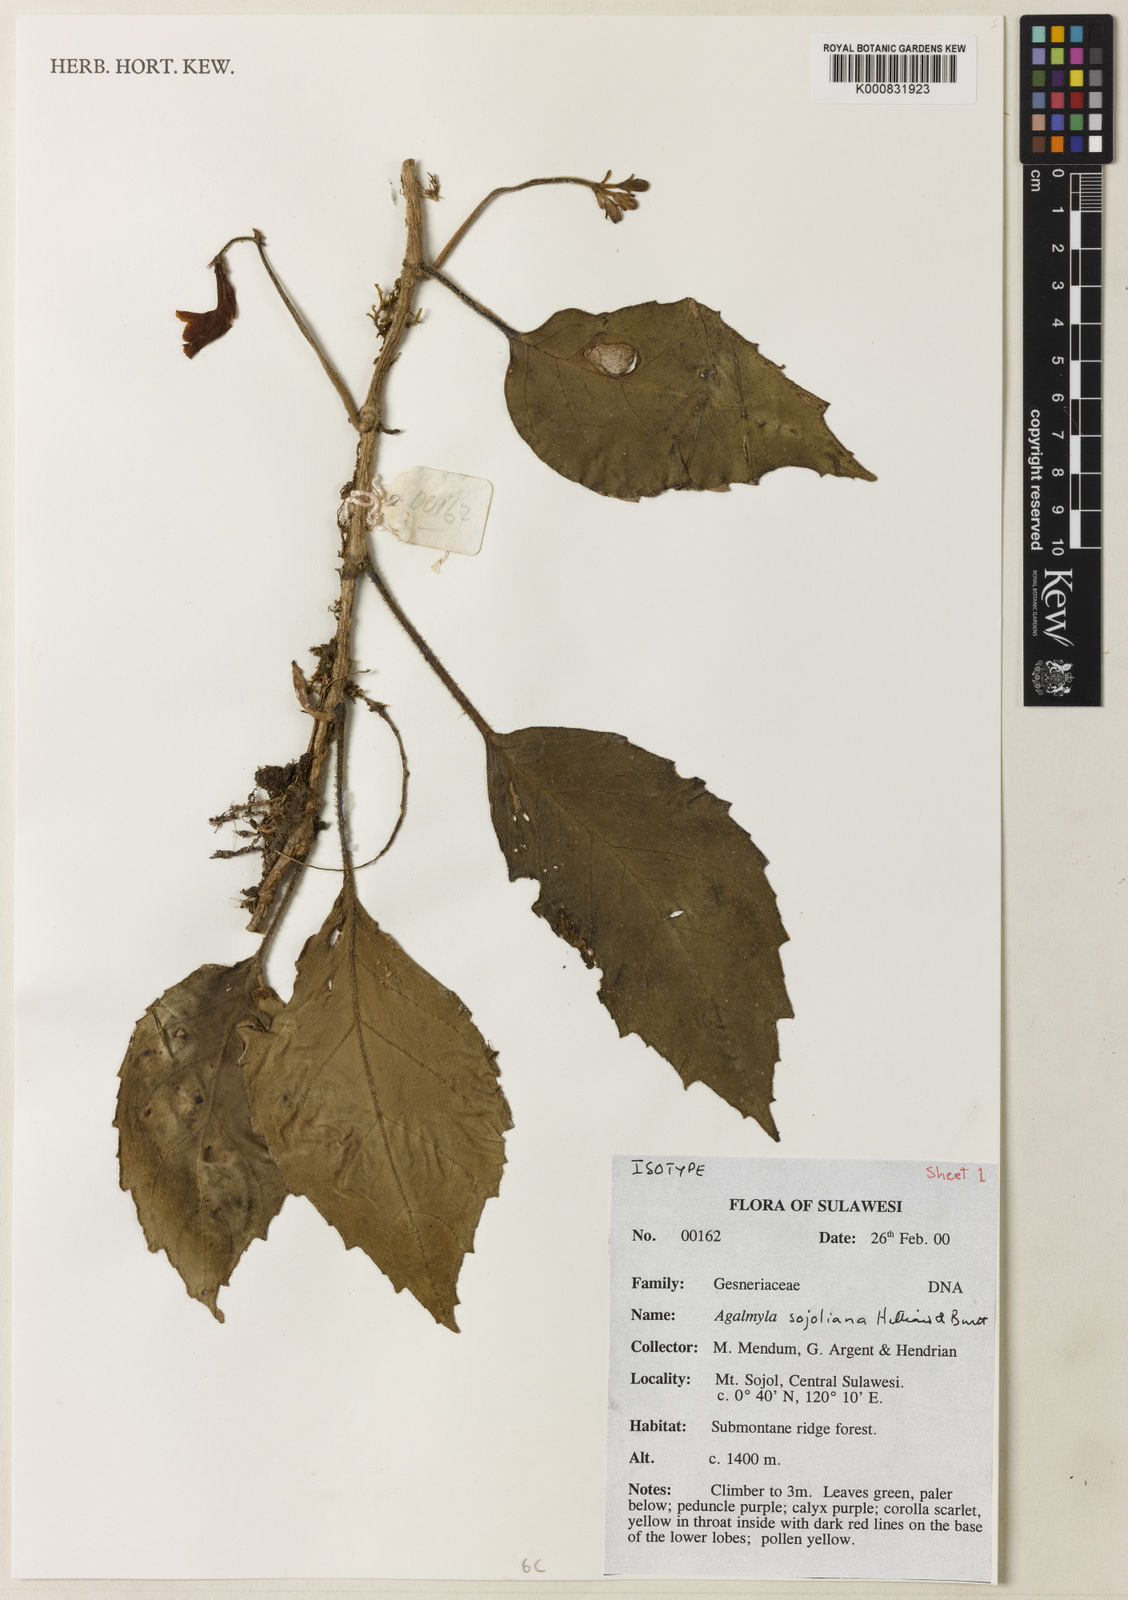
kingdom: Plantae
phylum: Tracheophyta
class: Magnoliopsida
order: Lamiales
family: Gesneriaceae
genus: Agalmyla
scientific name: Agalmyla sojoliana
